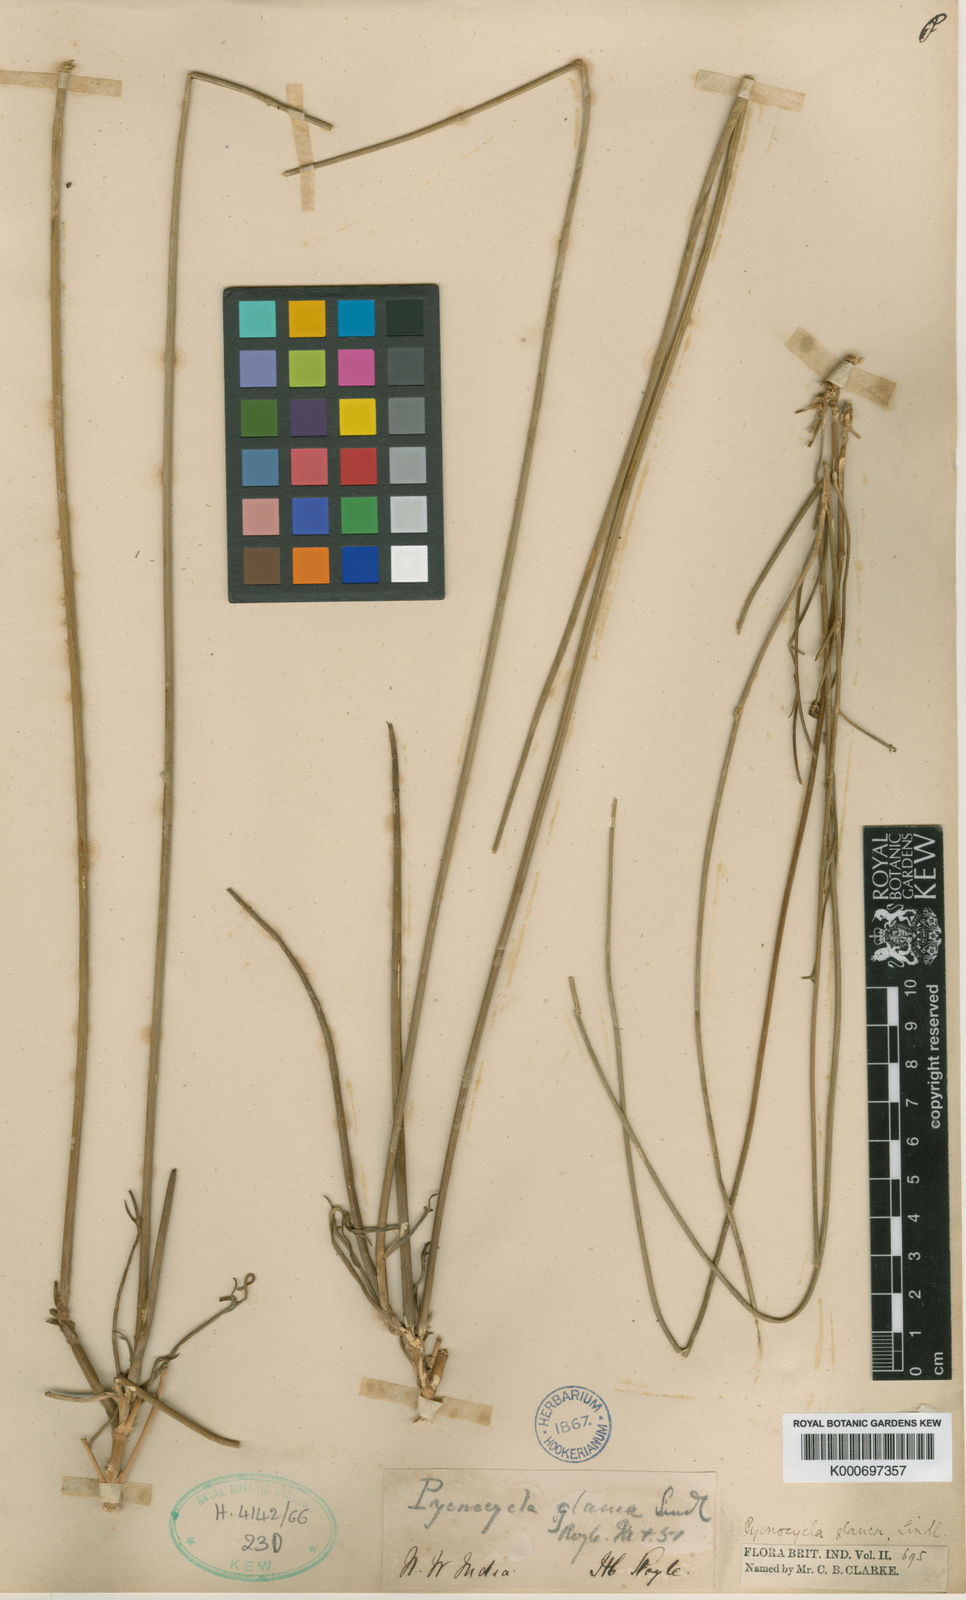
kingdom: Plantae
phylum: Tracheophyta
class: Magnoliopsida
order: Apiales
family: Apiaceae
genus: Pycnocycla
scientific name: Pycnocycla glauca
